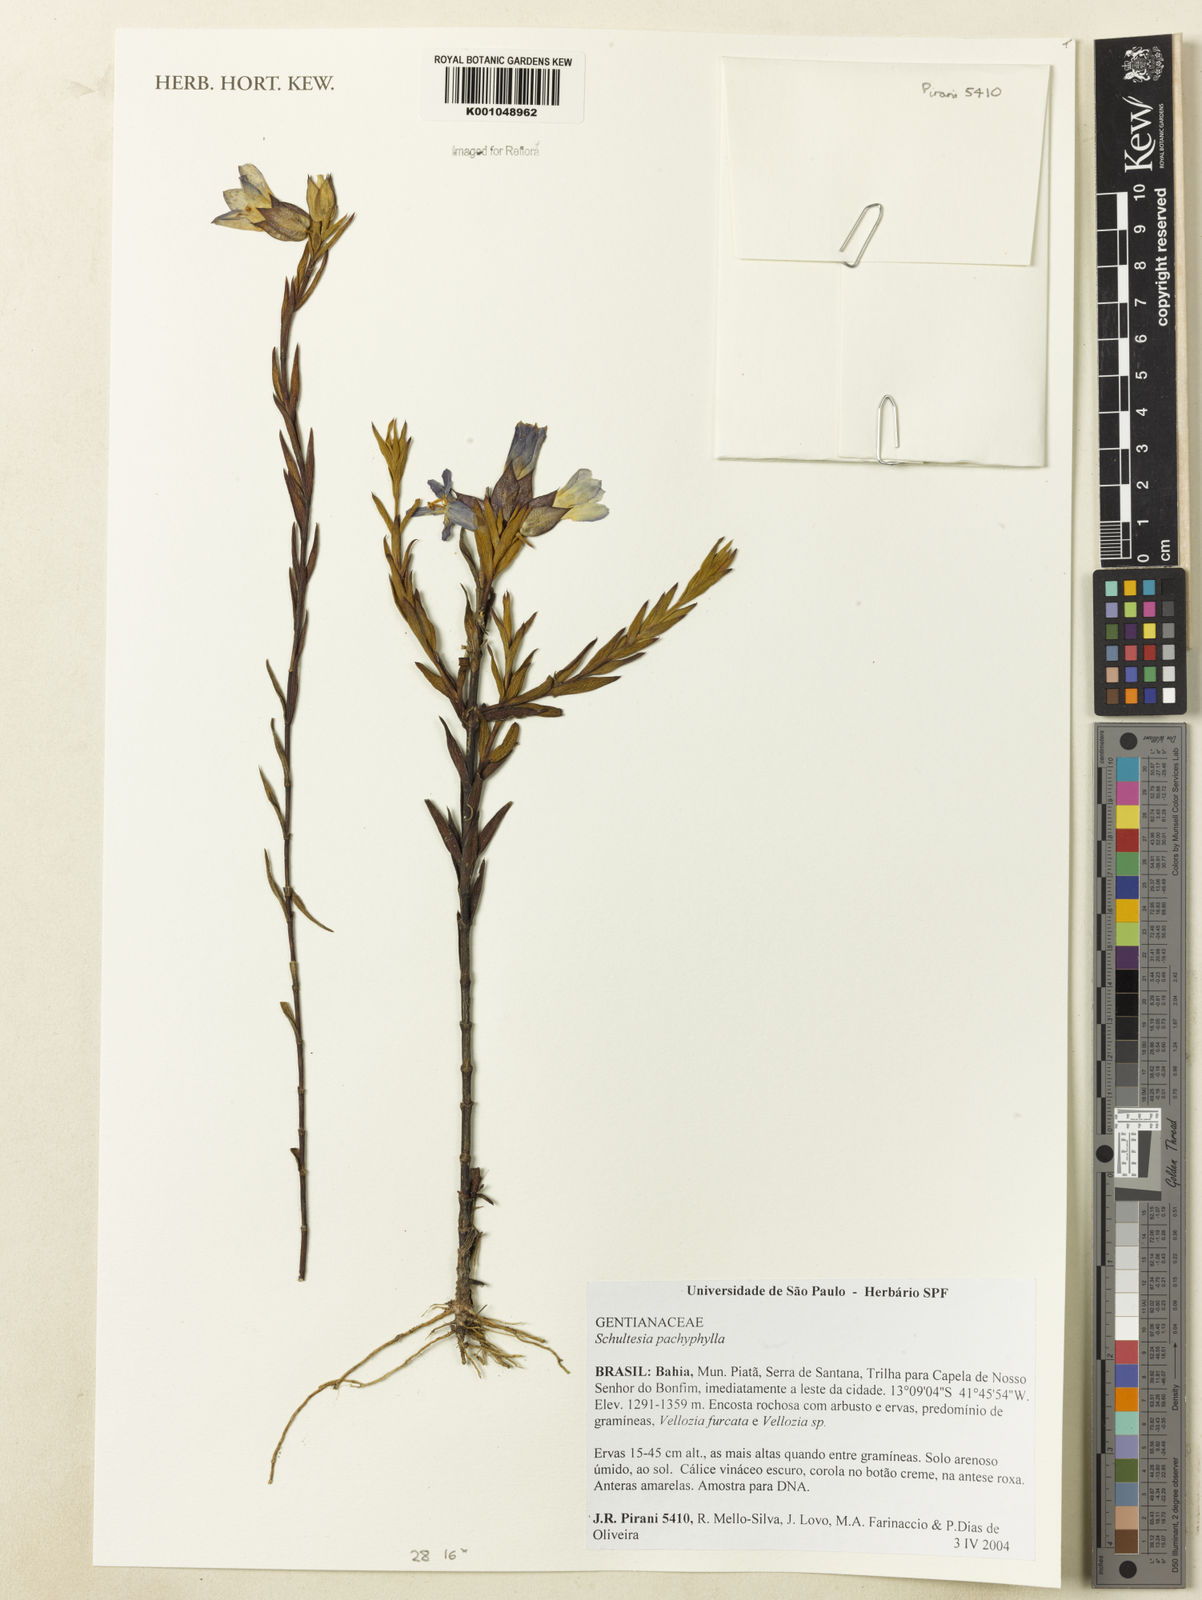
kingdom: Plantae
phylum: Tracheophyta
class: Magnoliopsida
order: Gentianales
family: Gentianaceae
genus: Schultesia
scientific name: Schultesia pachyphylla
